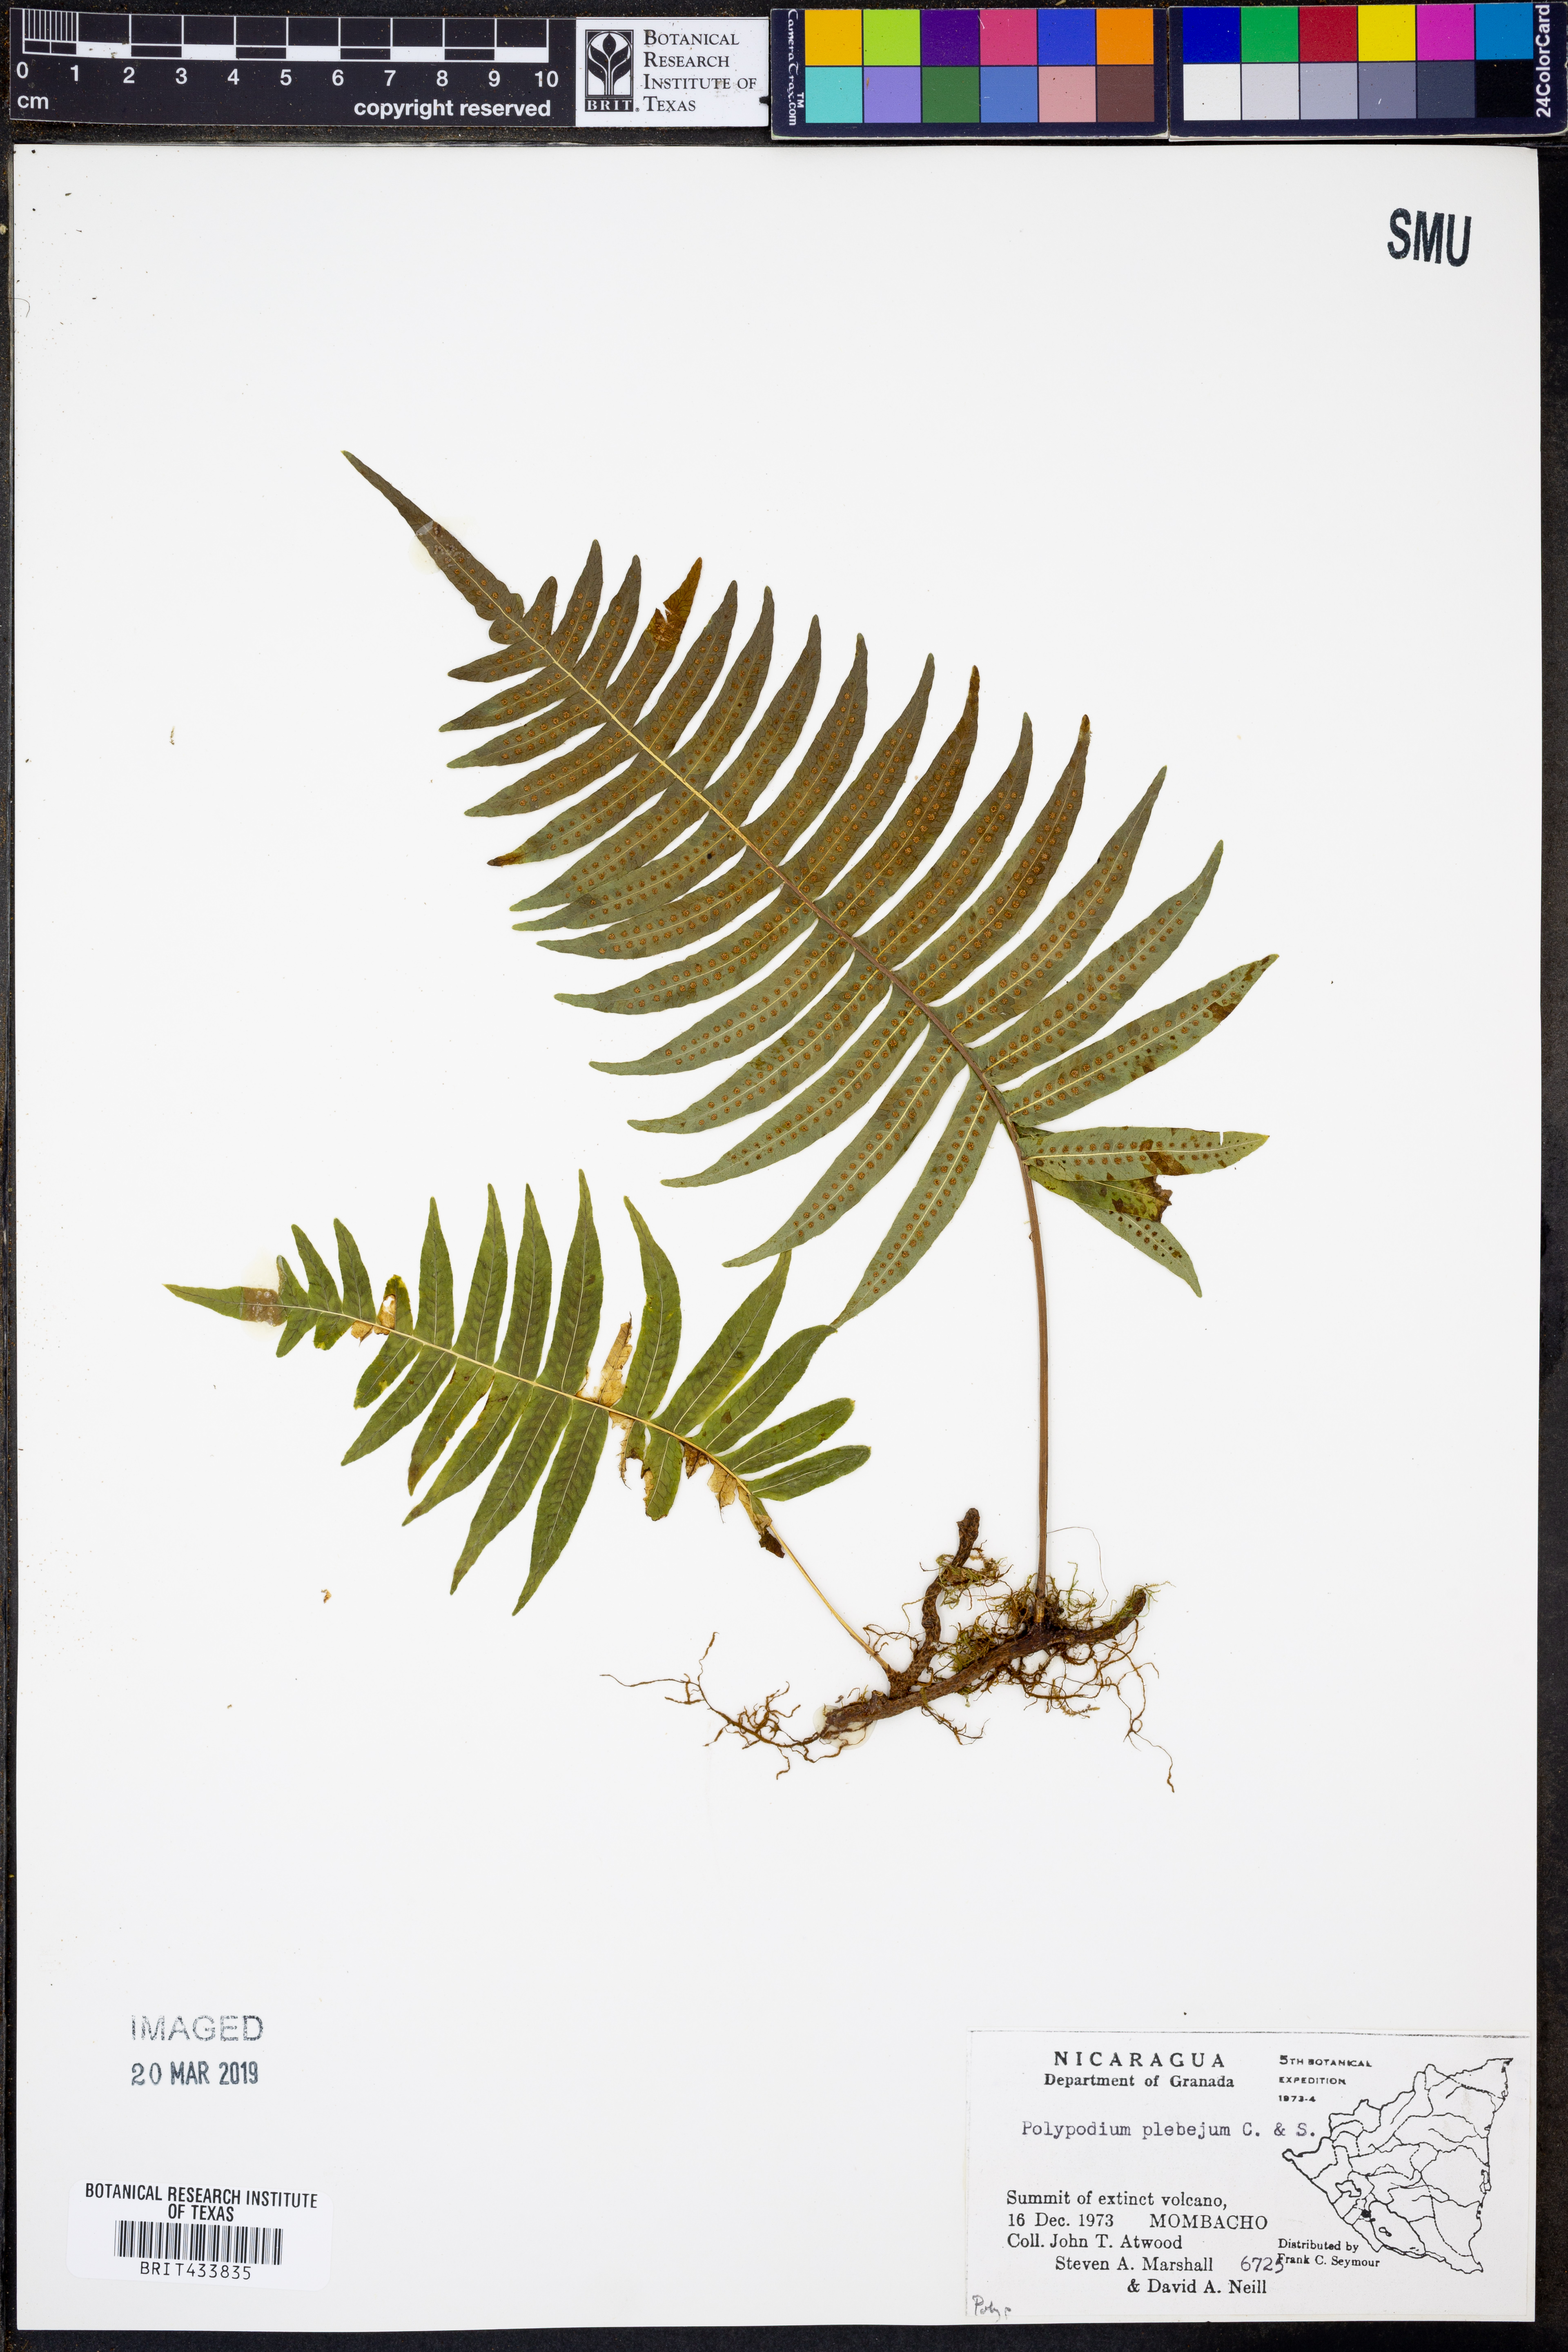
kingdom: Plantae
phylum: Tracheophyta
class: Polypodiopsida
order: Polypodiales
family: Polypodiaceae
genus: Pleopeltis
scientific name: Pleopeltis plebeia
